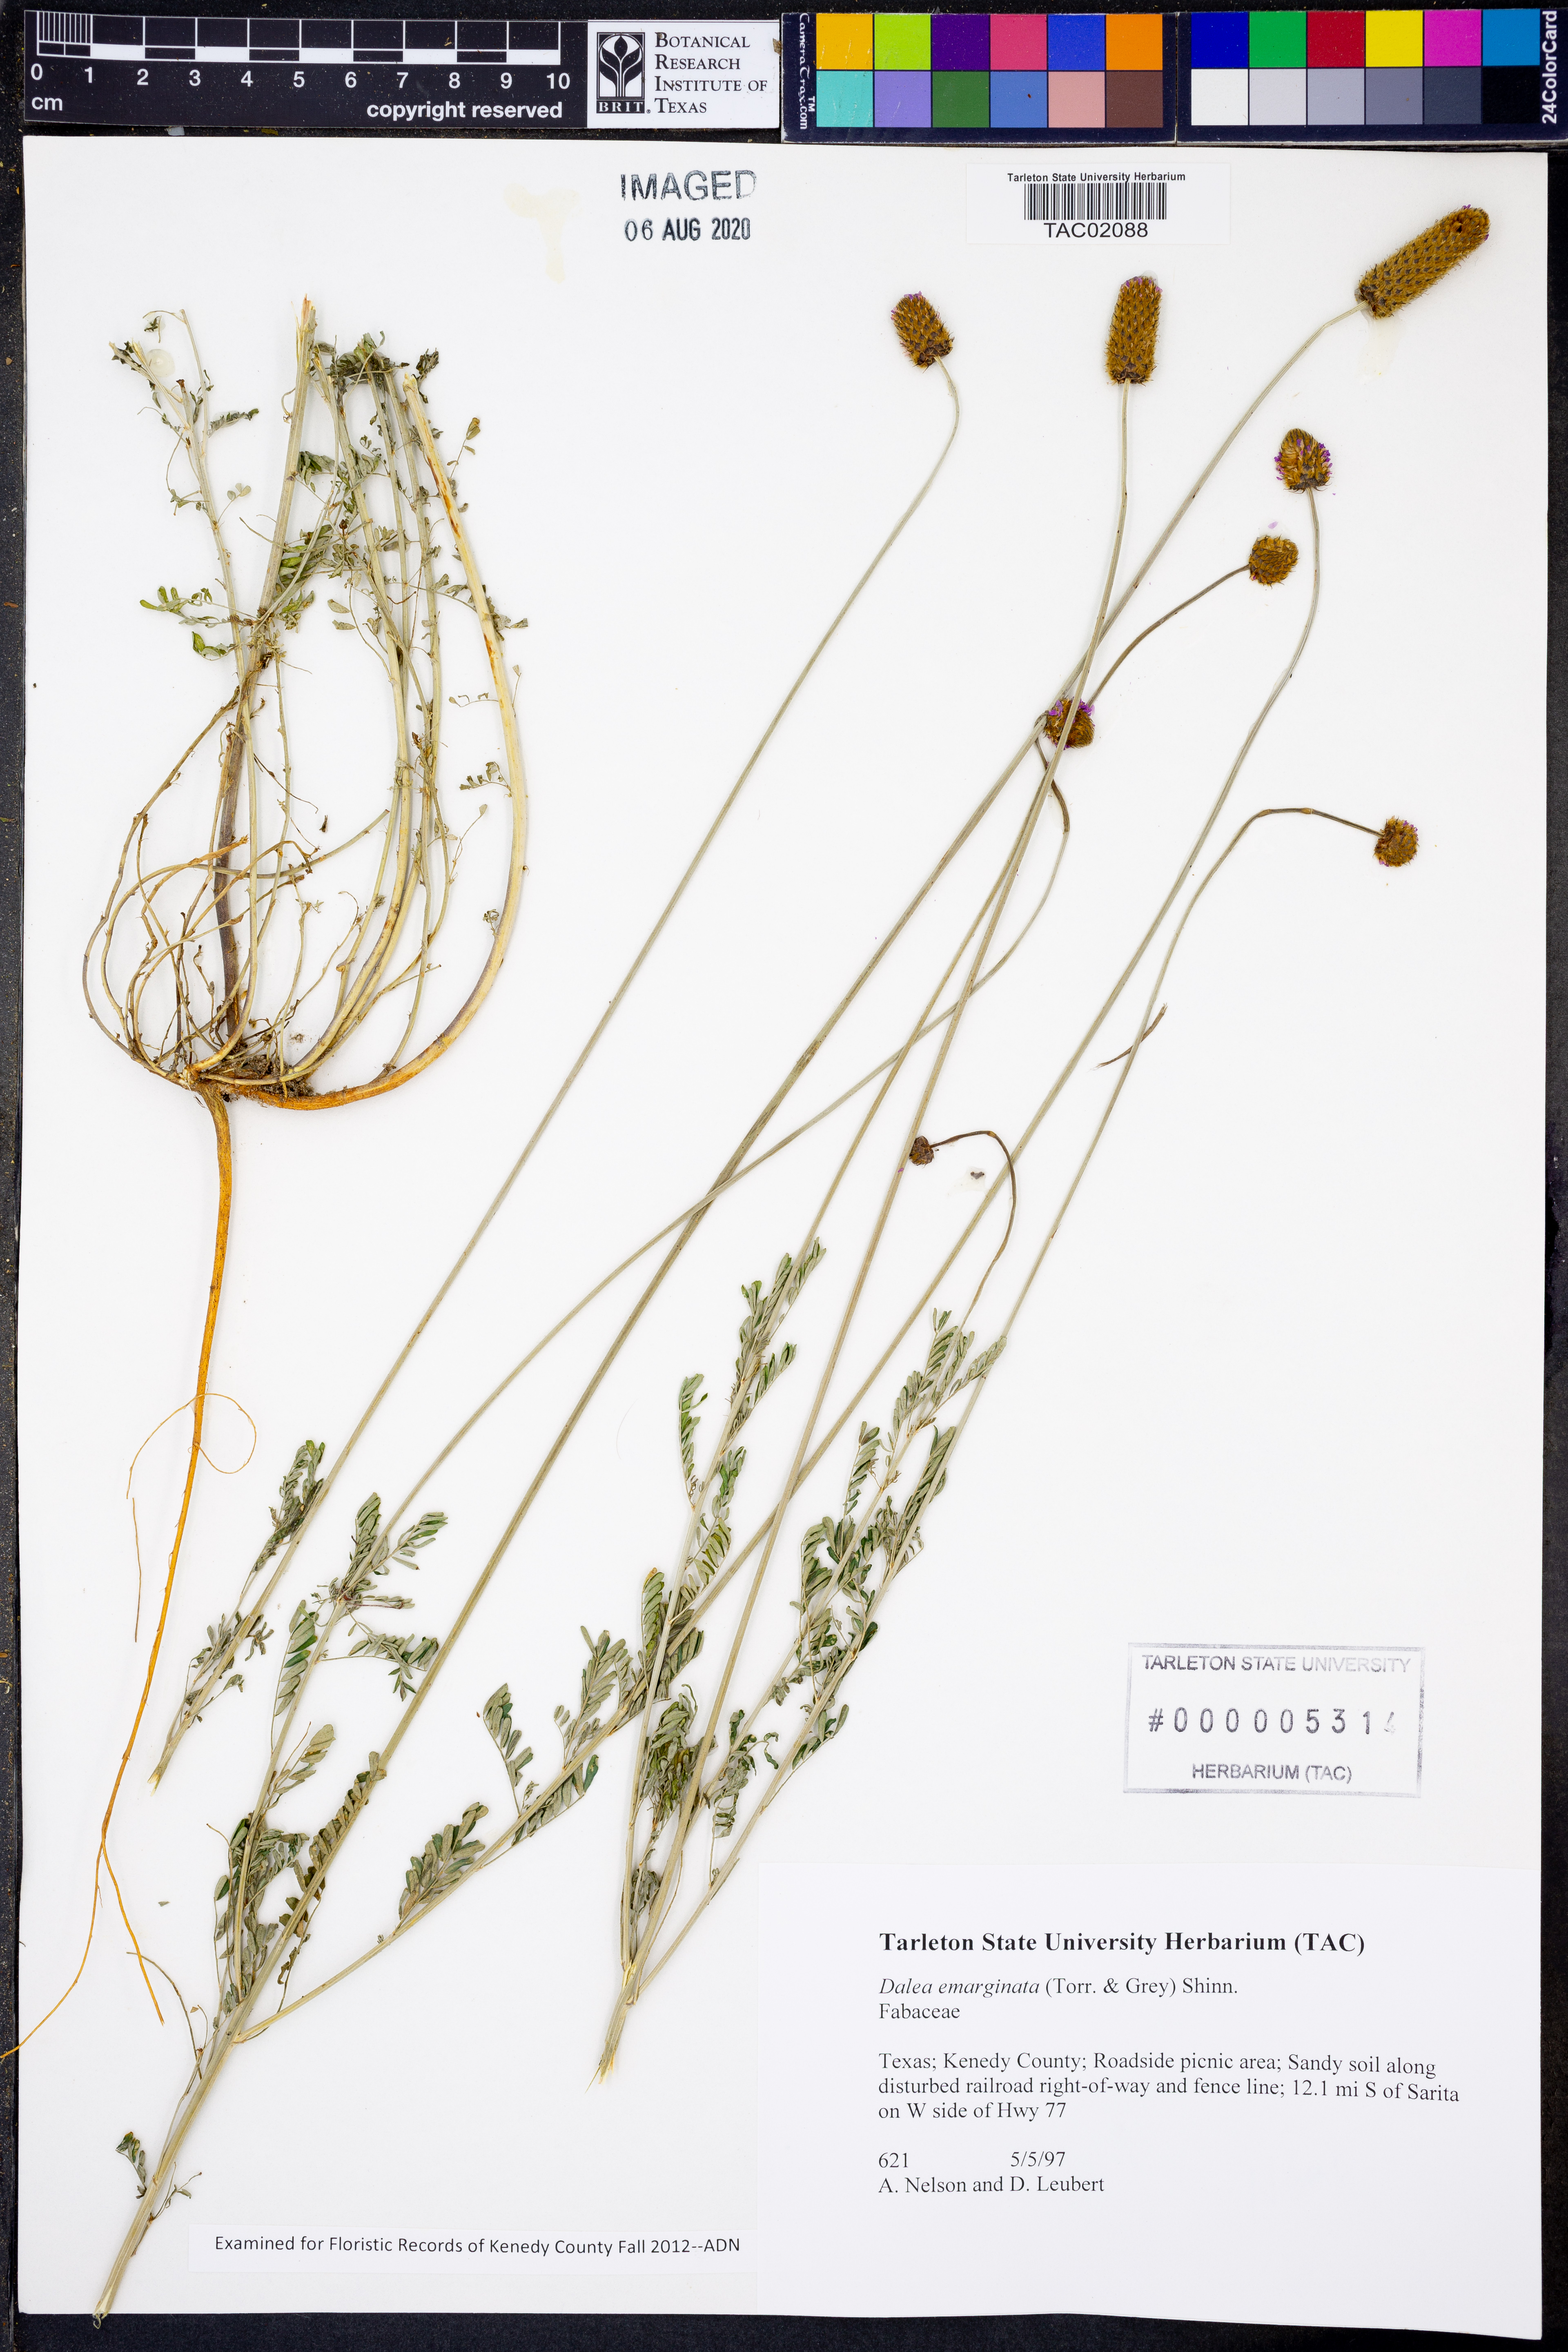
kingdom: Plantae
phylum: Tracheophyta
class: Magnoliopsida
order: Fabales
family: Fabaceae
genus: Dalea
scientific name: Dalea emarginata
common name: Wedgeleaf prairie clover
